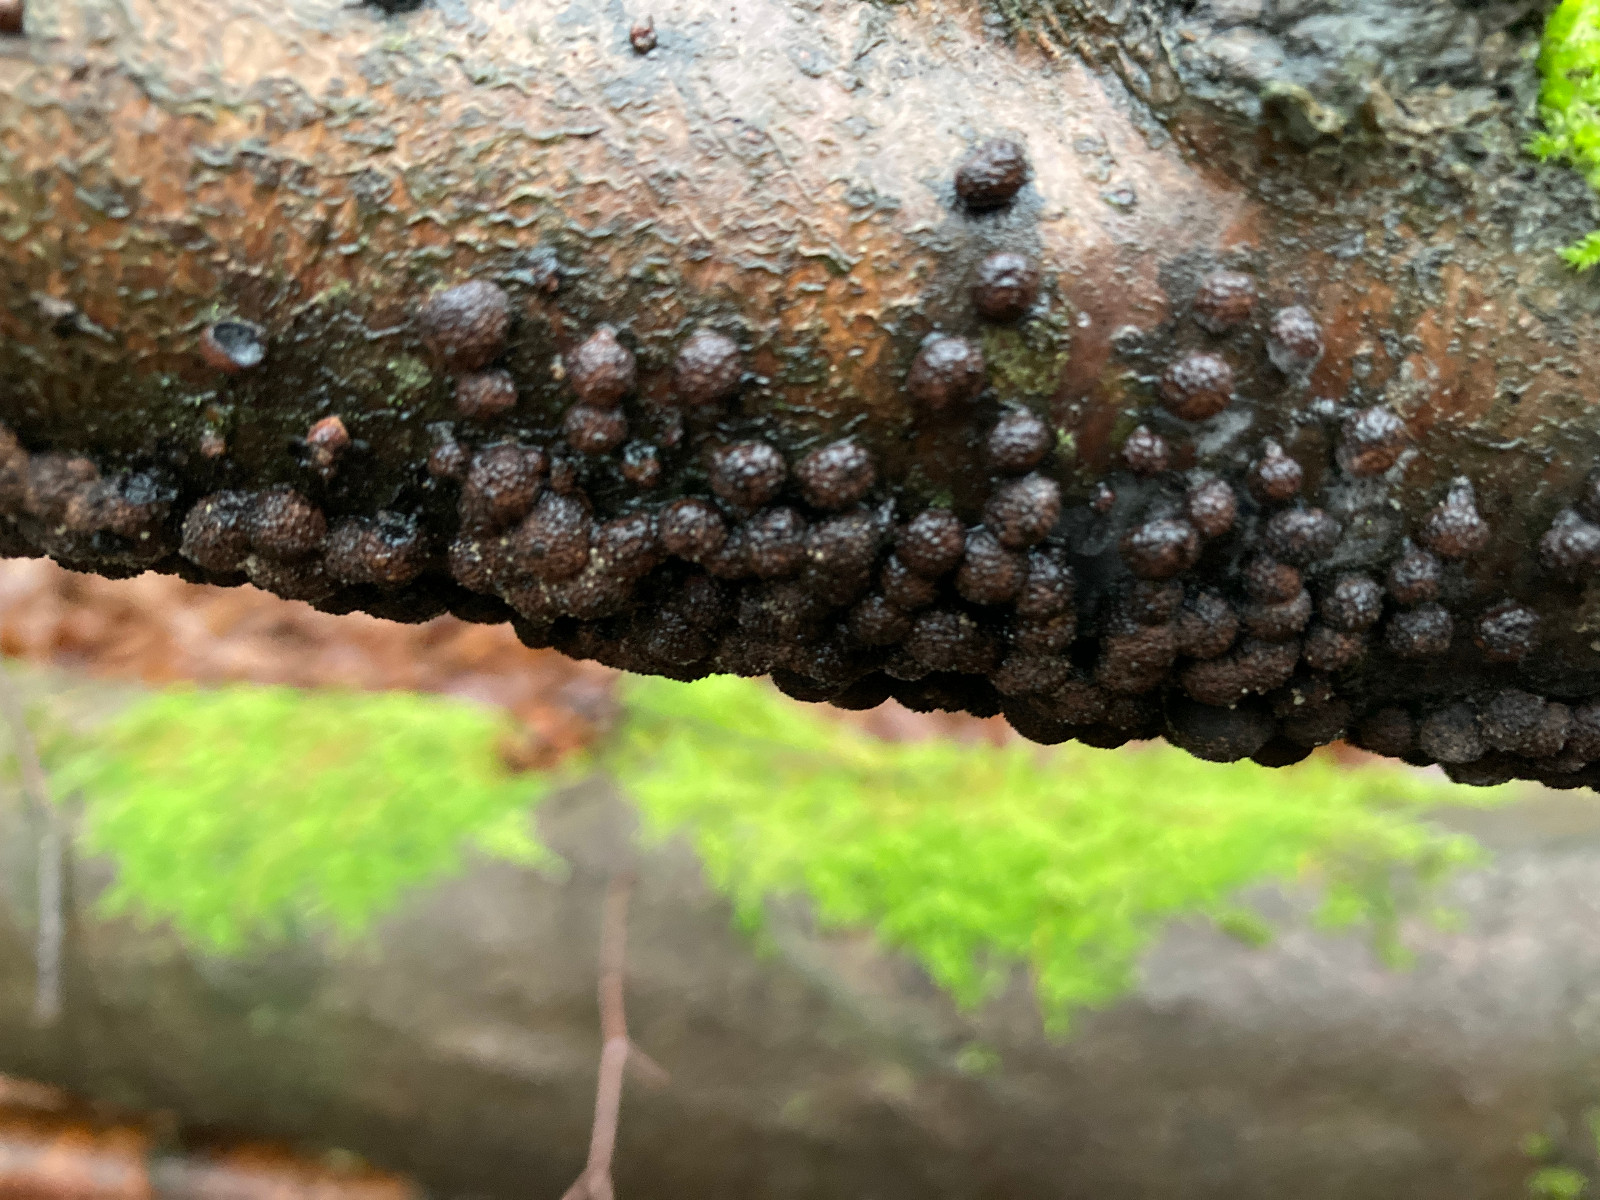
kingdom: Fungi
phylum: Ascomycota
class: Sordariomycetes
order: Xylariales
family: Hypoxylaceae
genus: Hypoxylon
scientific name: Hypoxylon fragiforme
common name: kuljordbær
